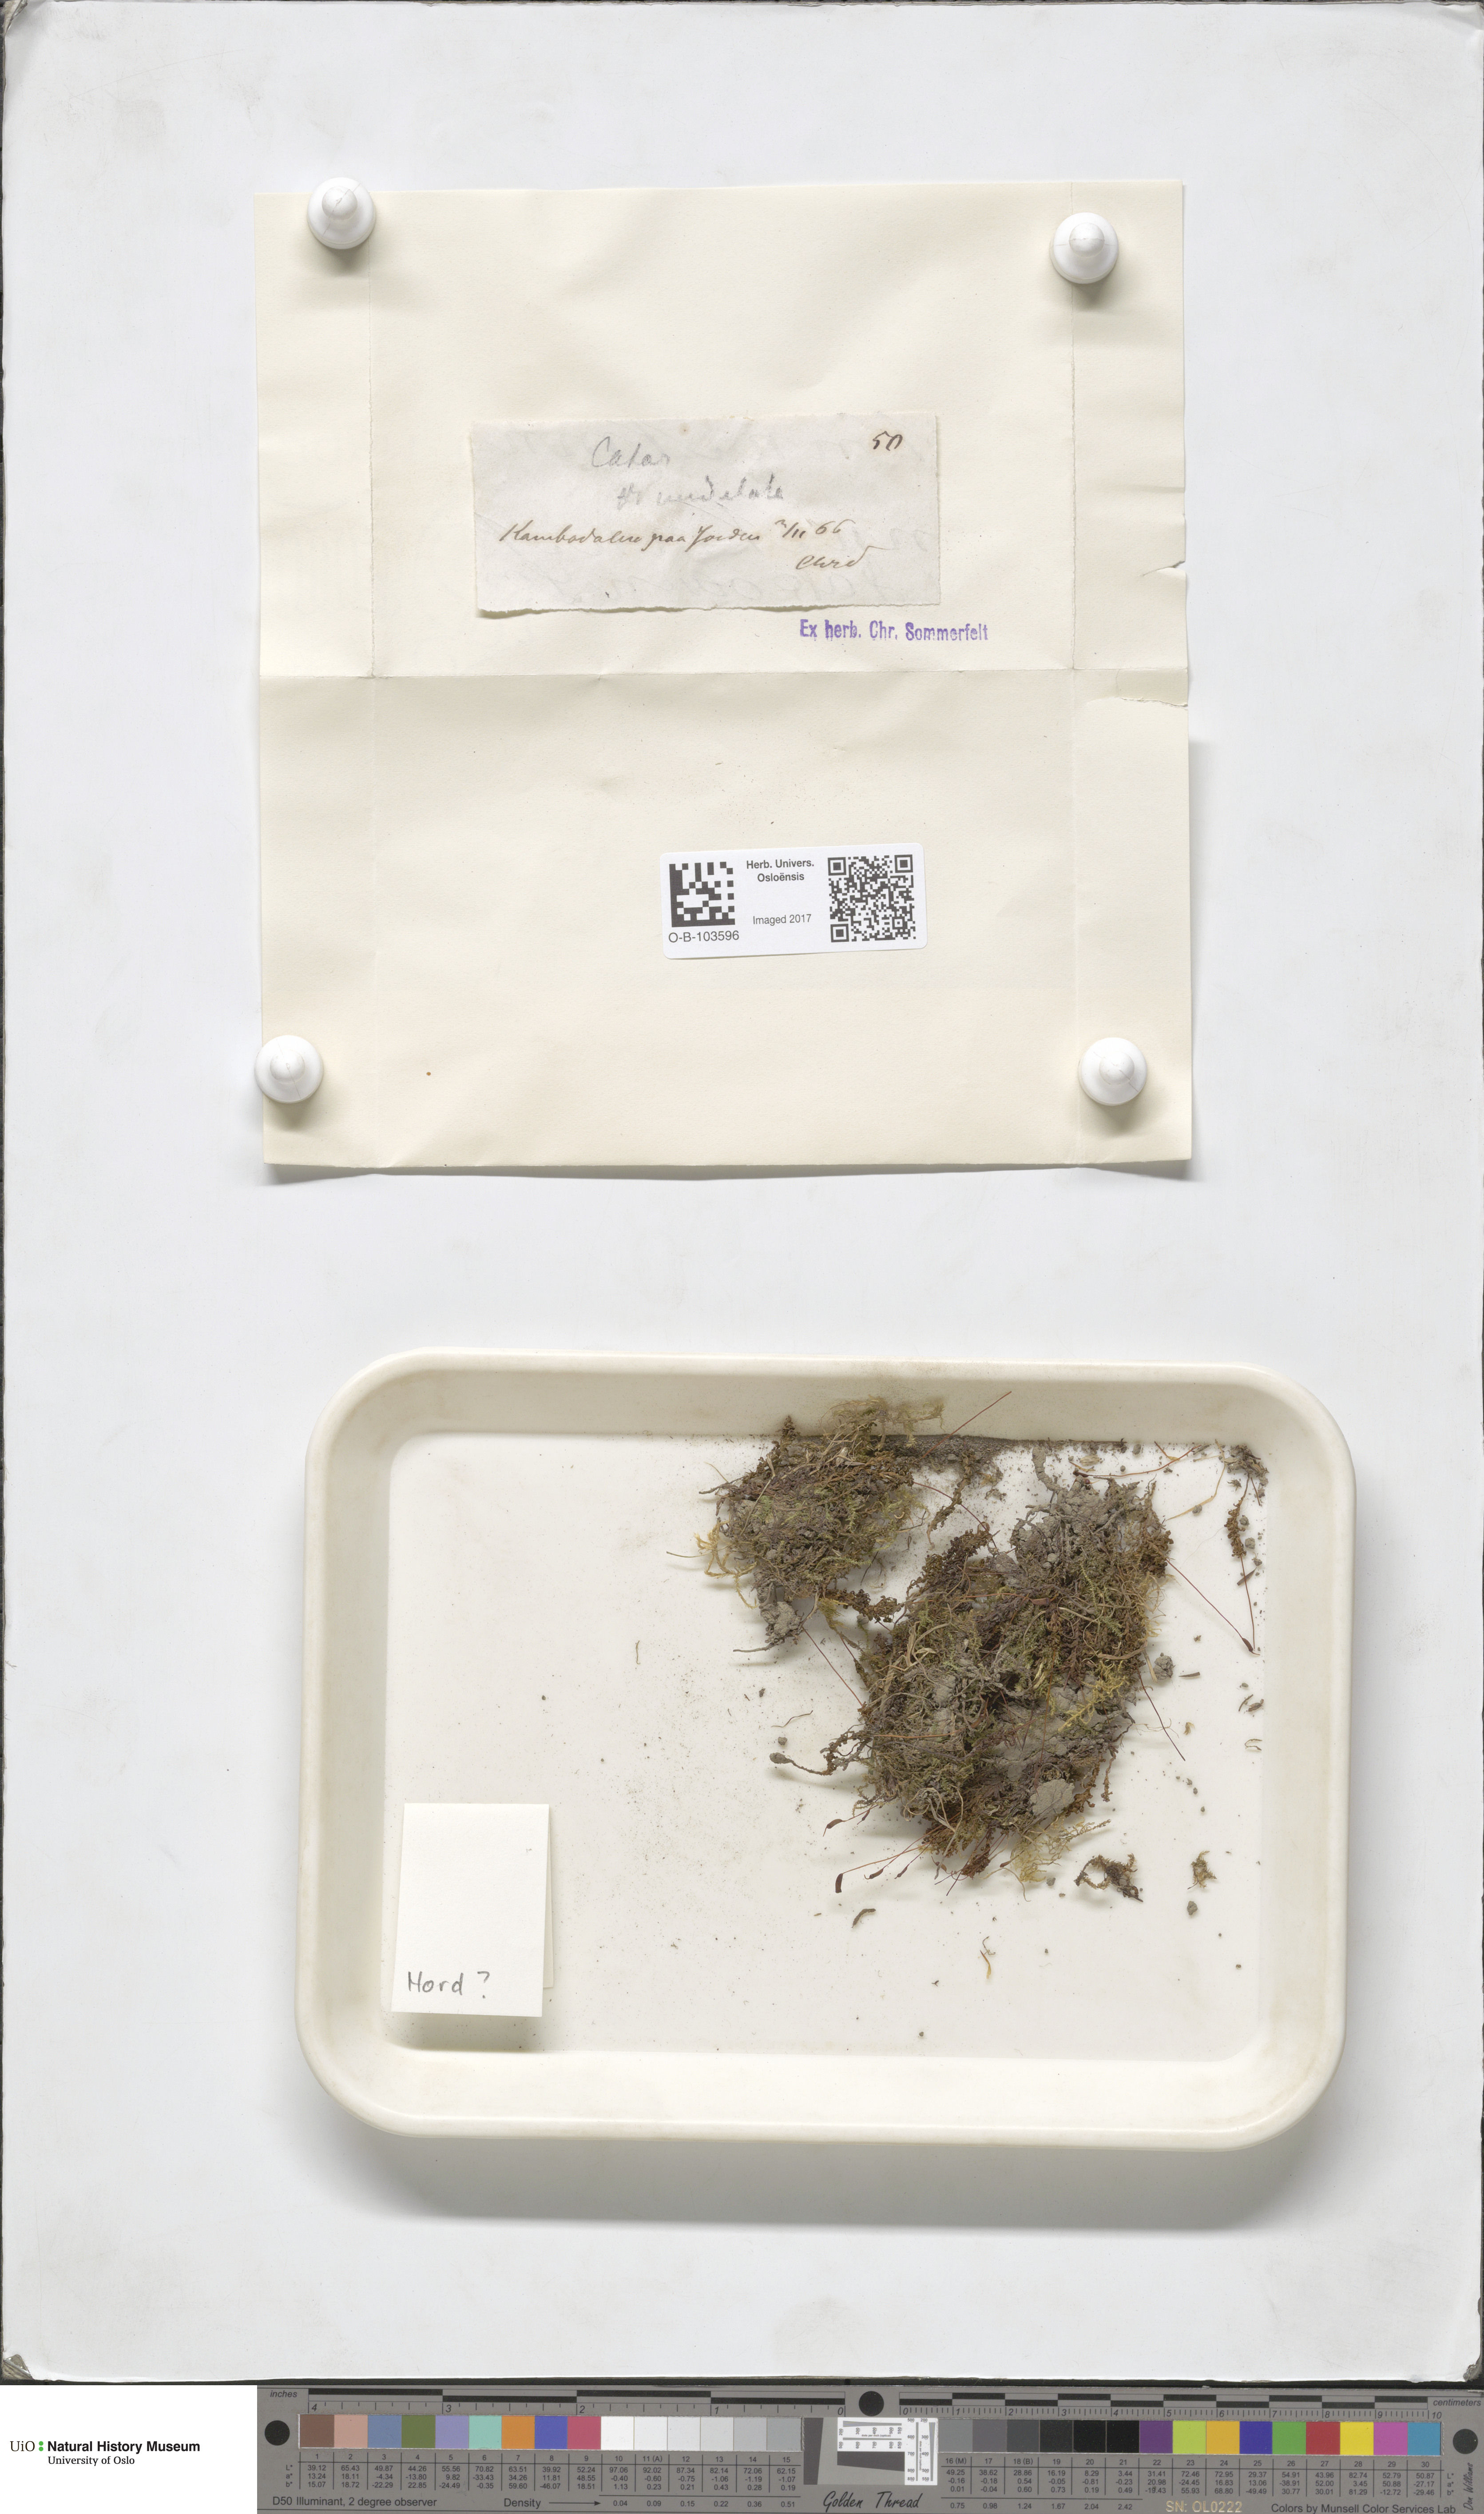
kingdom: Plantae
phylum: Bryophyta
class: Polytrichopsida
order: Polytrichales
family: Polytrichaceae
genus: Atrichum
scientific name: Atrichum undulatum
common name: Common smoothcap
